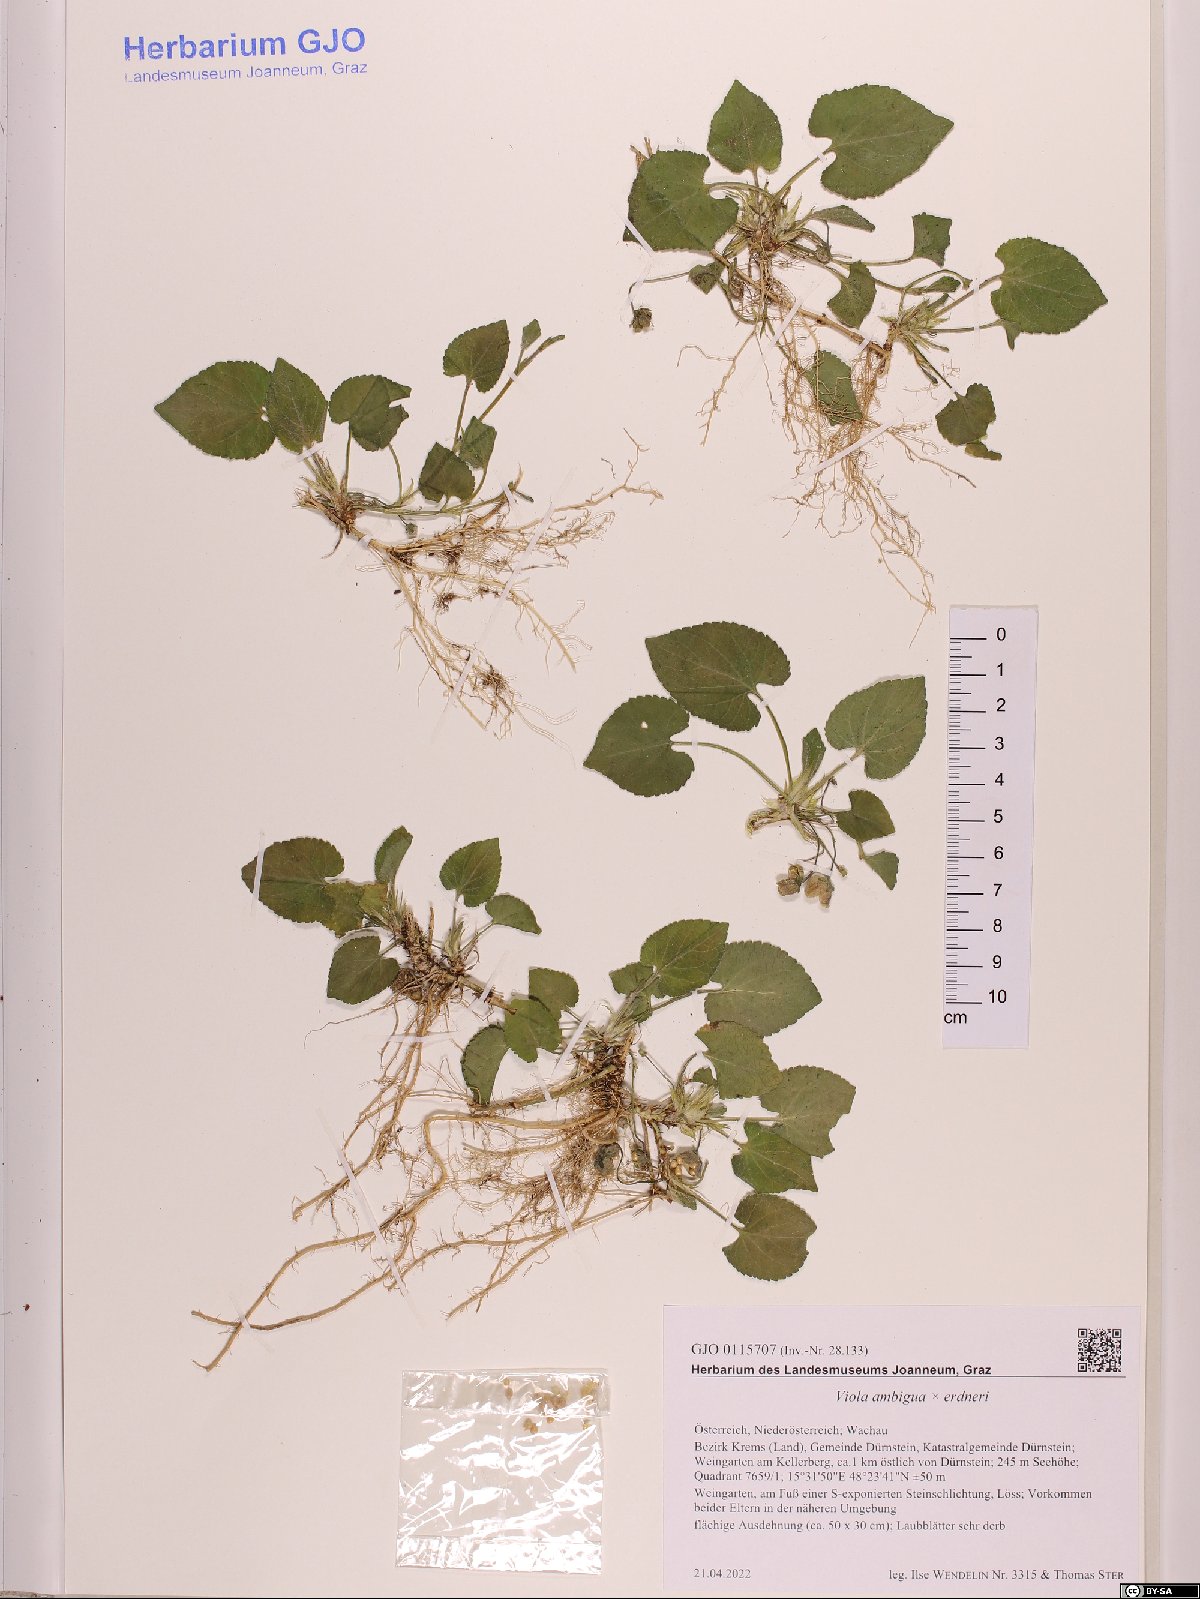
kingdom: Plantae
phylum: Tracheophyta
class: Magnoliopsida
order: Malpighiales
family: Violaceae
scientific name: Violaceae
